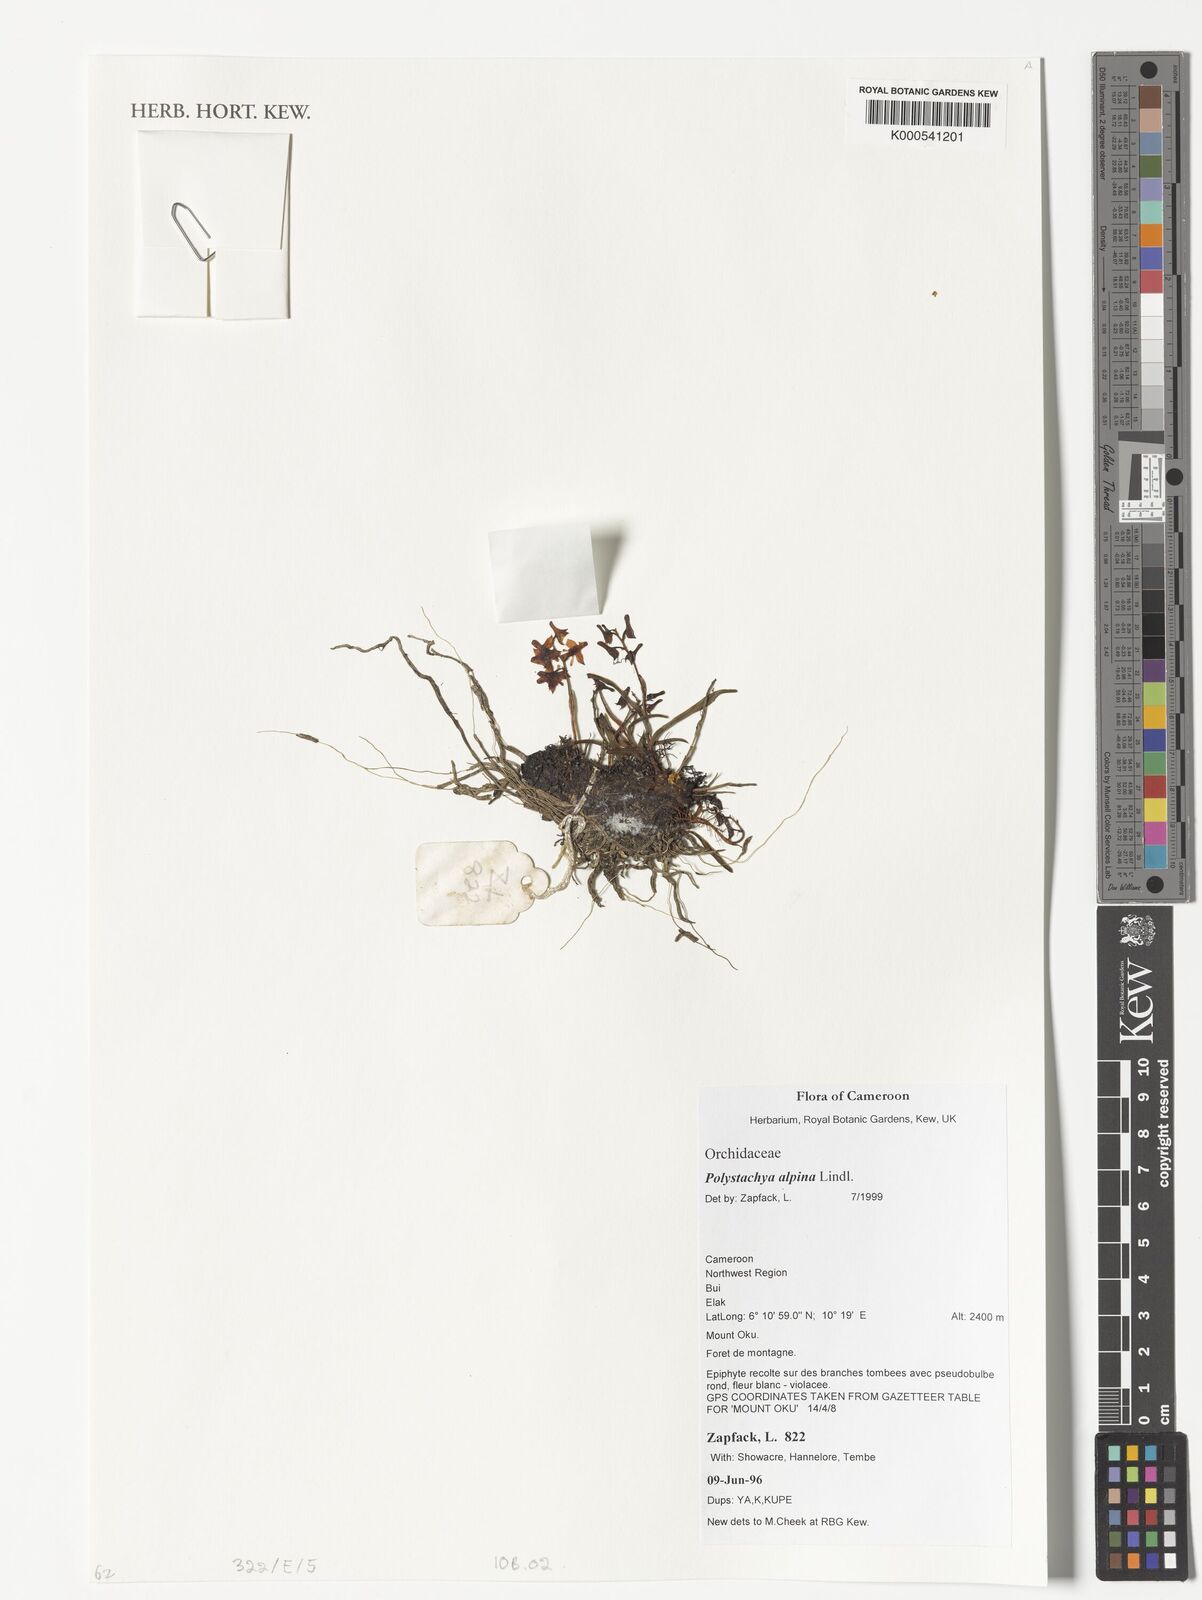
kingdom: Plantae
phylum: Tracheophyta
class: Liliopsida
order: Asparagales
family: Orchidaceae
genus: Polystachya
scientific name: Polystachya alpina
